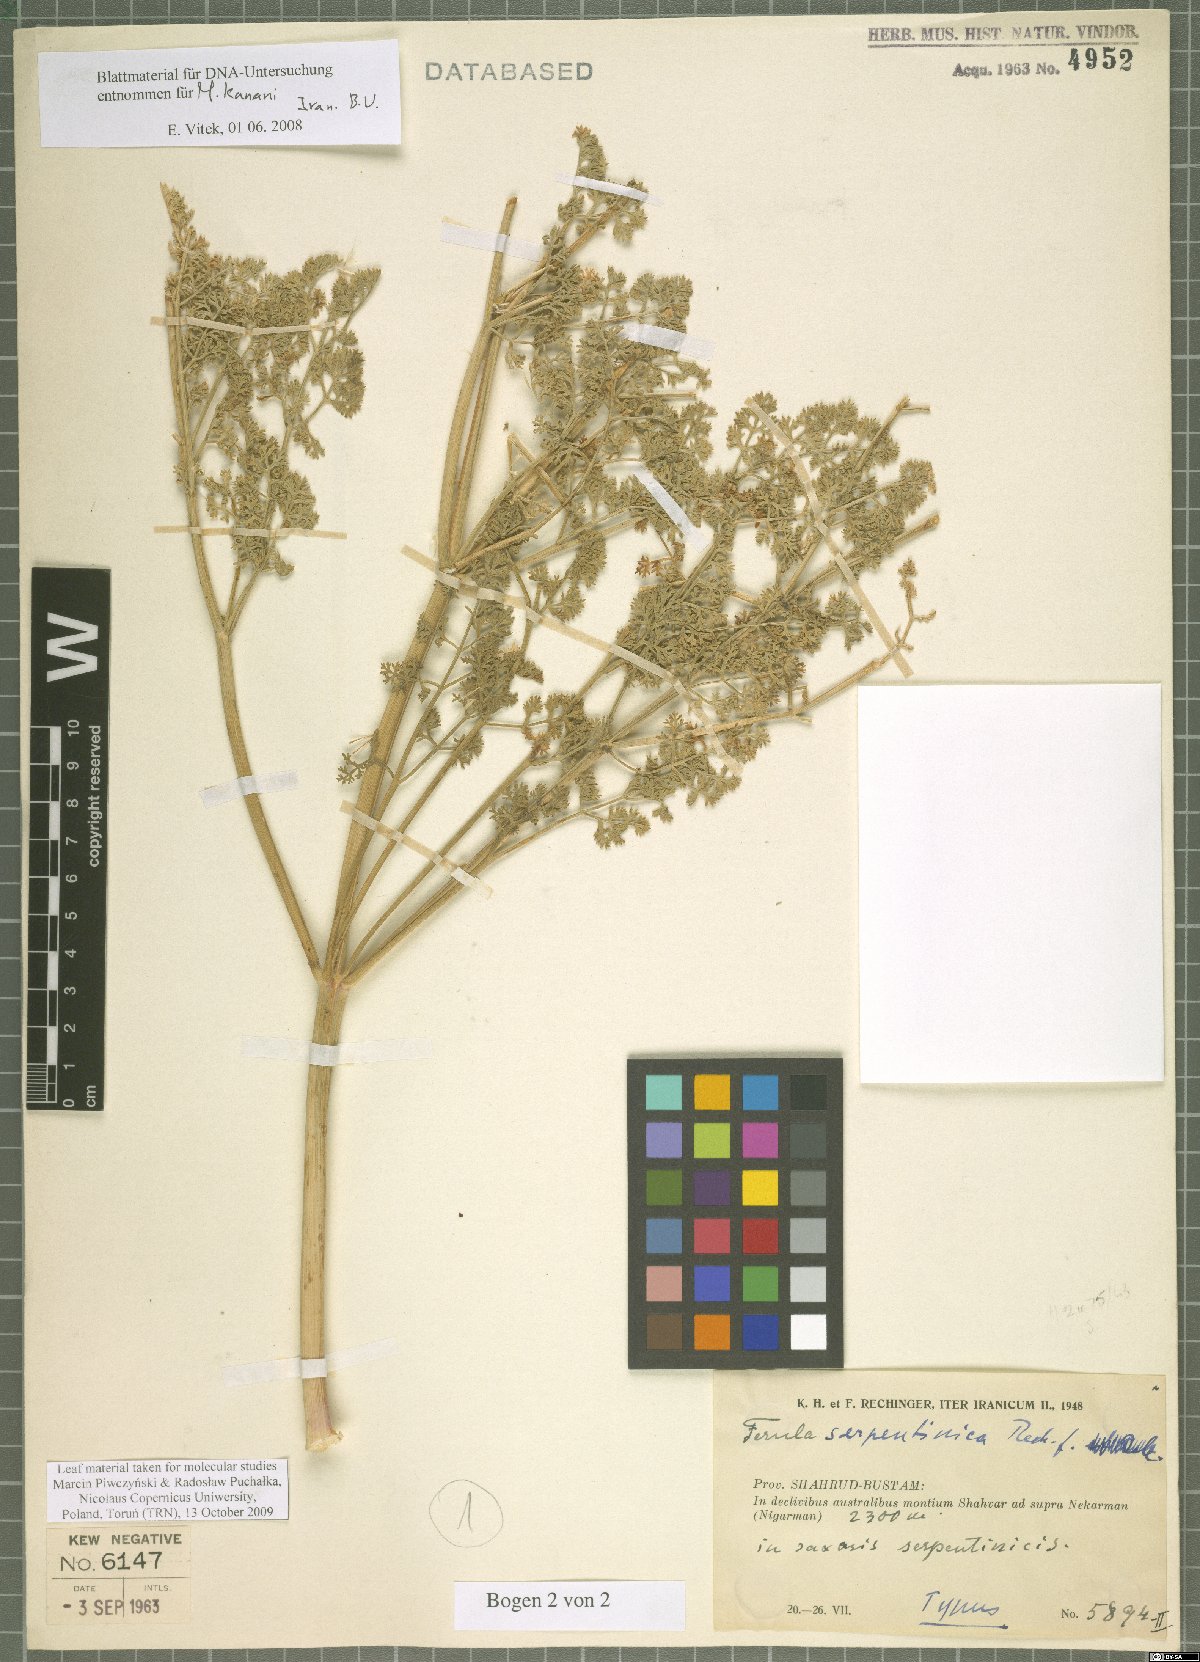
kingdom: Plantae
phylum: Tracheophyta
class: Magnoliopsida
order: Apiales
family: Apiaceae
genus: Ferula
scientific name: Ferula serpentinica
